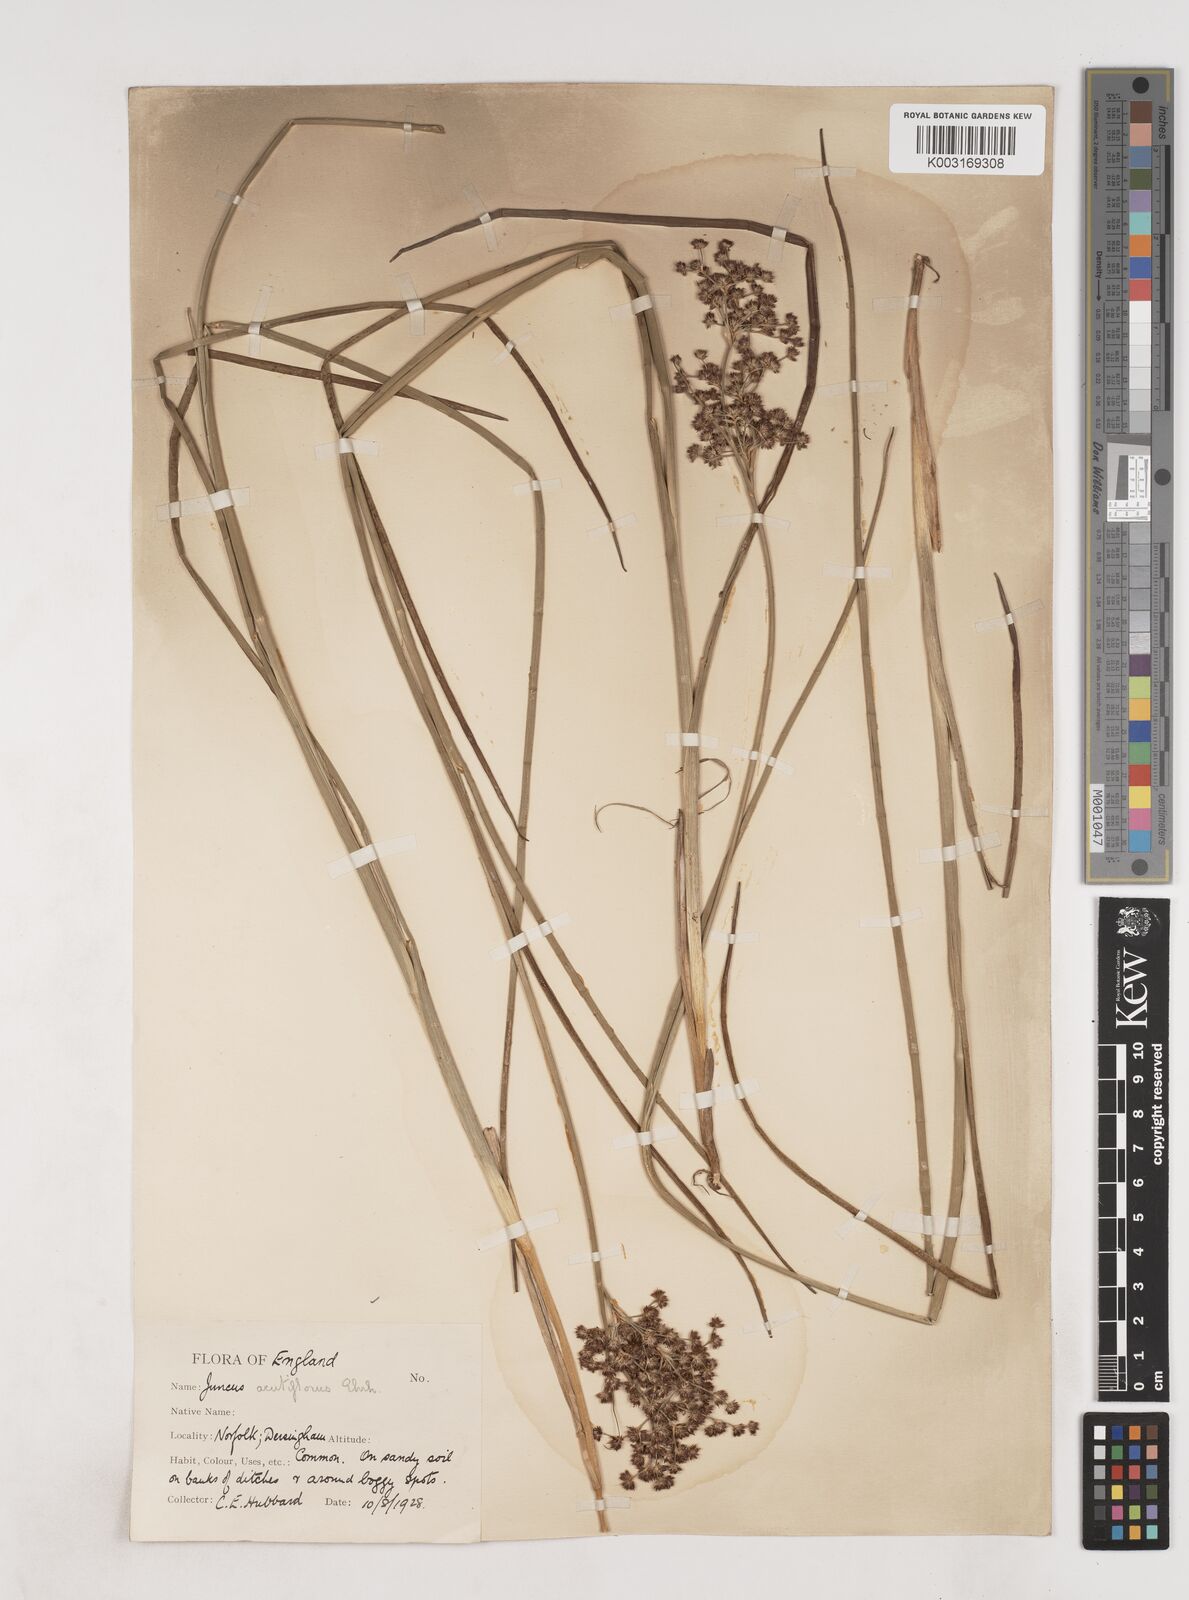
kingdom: Plantae
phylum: Tracheophyta
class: Liliopsida
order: Poales
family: Juncaceae
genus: Juncus
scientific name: Juncus acutiflorus
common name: Sharp-flowered rush
